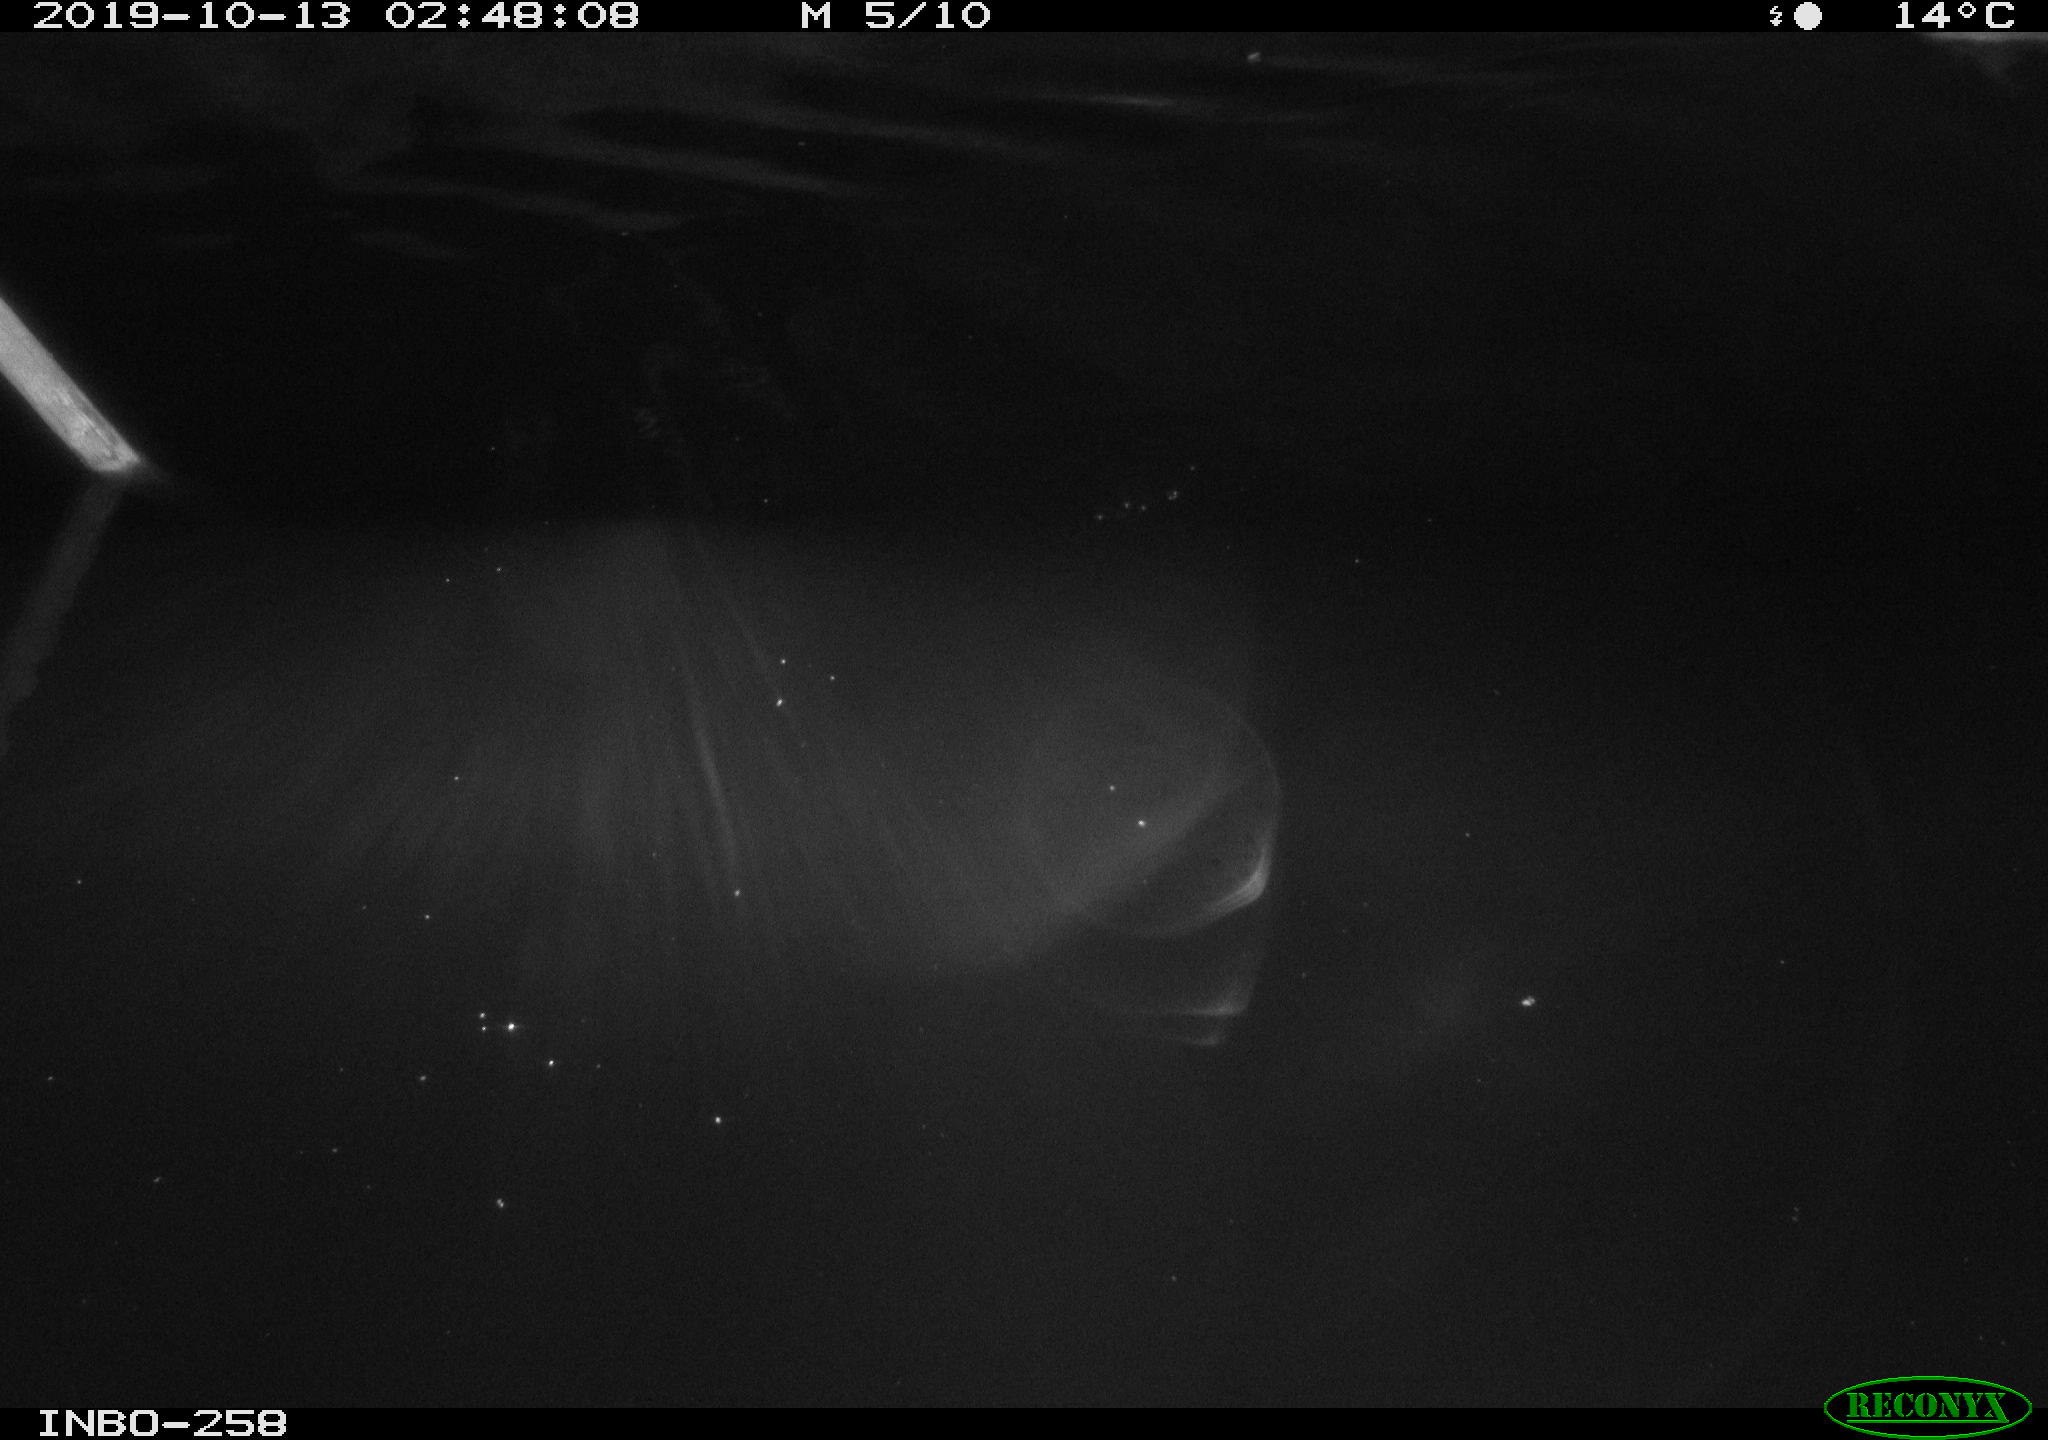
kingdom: Animalia
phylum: Chordata
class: Aves
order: Anseriformes
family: Anatidae
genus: Anas
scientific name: Anas platyrhynchos
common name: Mallard
